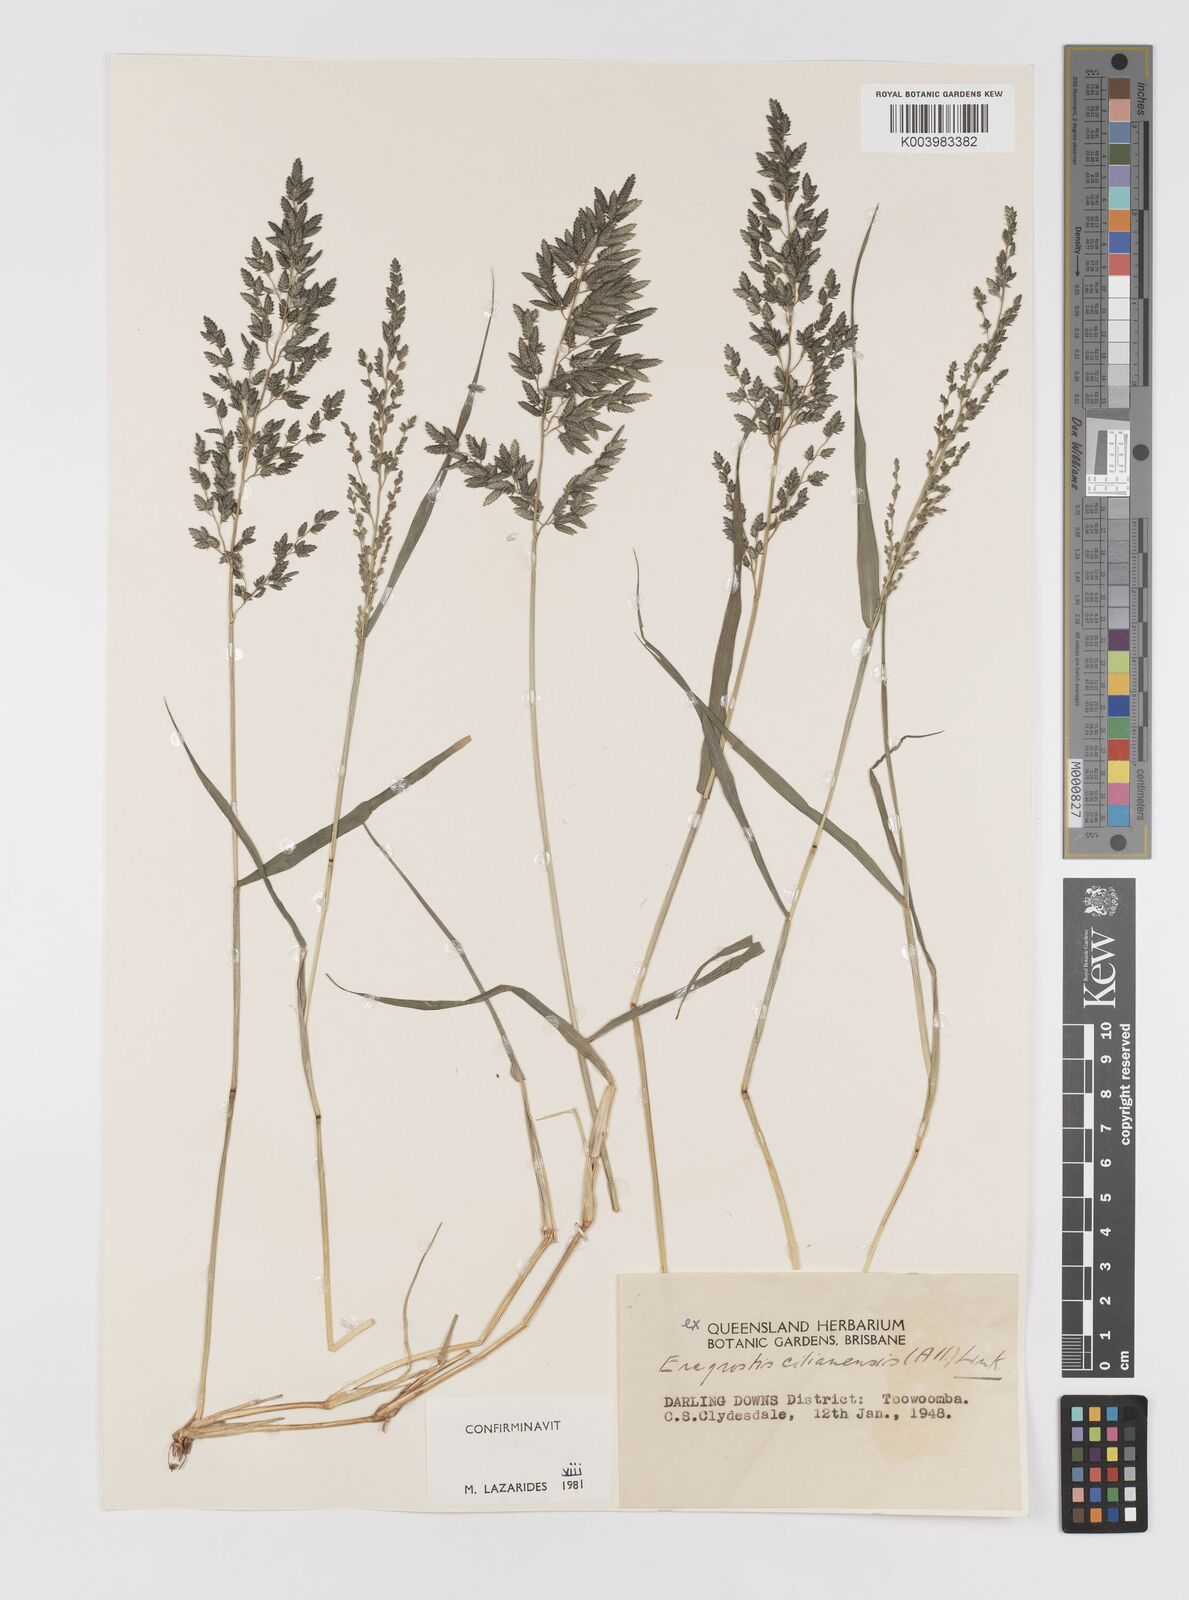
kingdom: Plantae
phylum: Tracheophyta
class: Liliopsida
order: Poales
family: Poaceae
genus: Eragrostis
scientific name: Eragrostis cilianensis
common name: Stinkgrass
